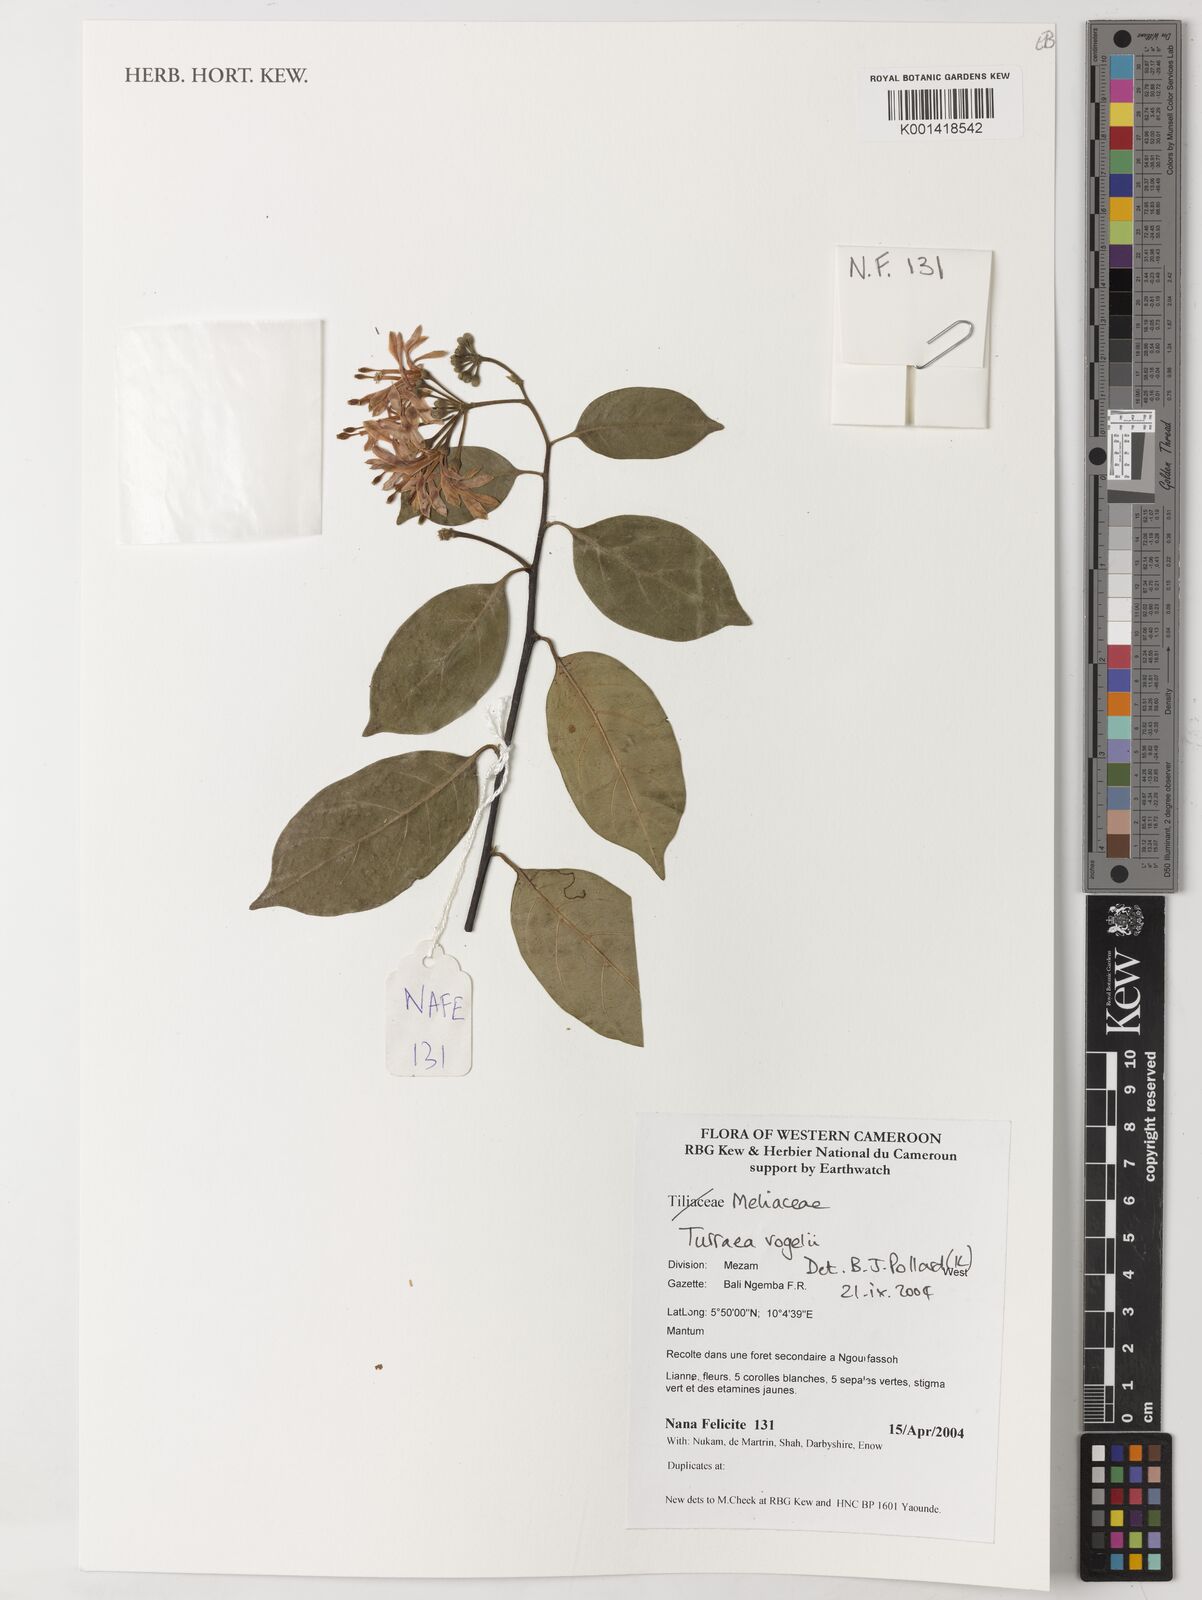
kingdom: Plantae
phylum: Tracheophyta
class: Magnoliopsida
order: Sapindales
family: Meliaceae
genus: Turraea
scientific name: Turraea vogelii
